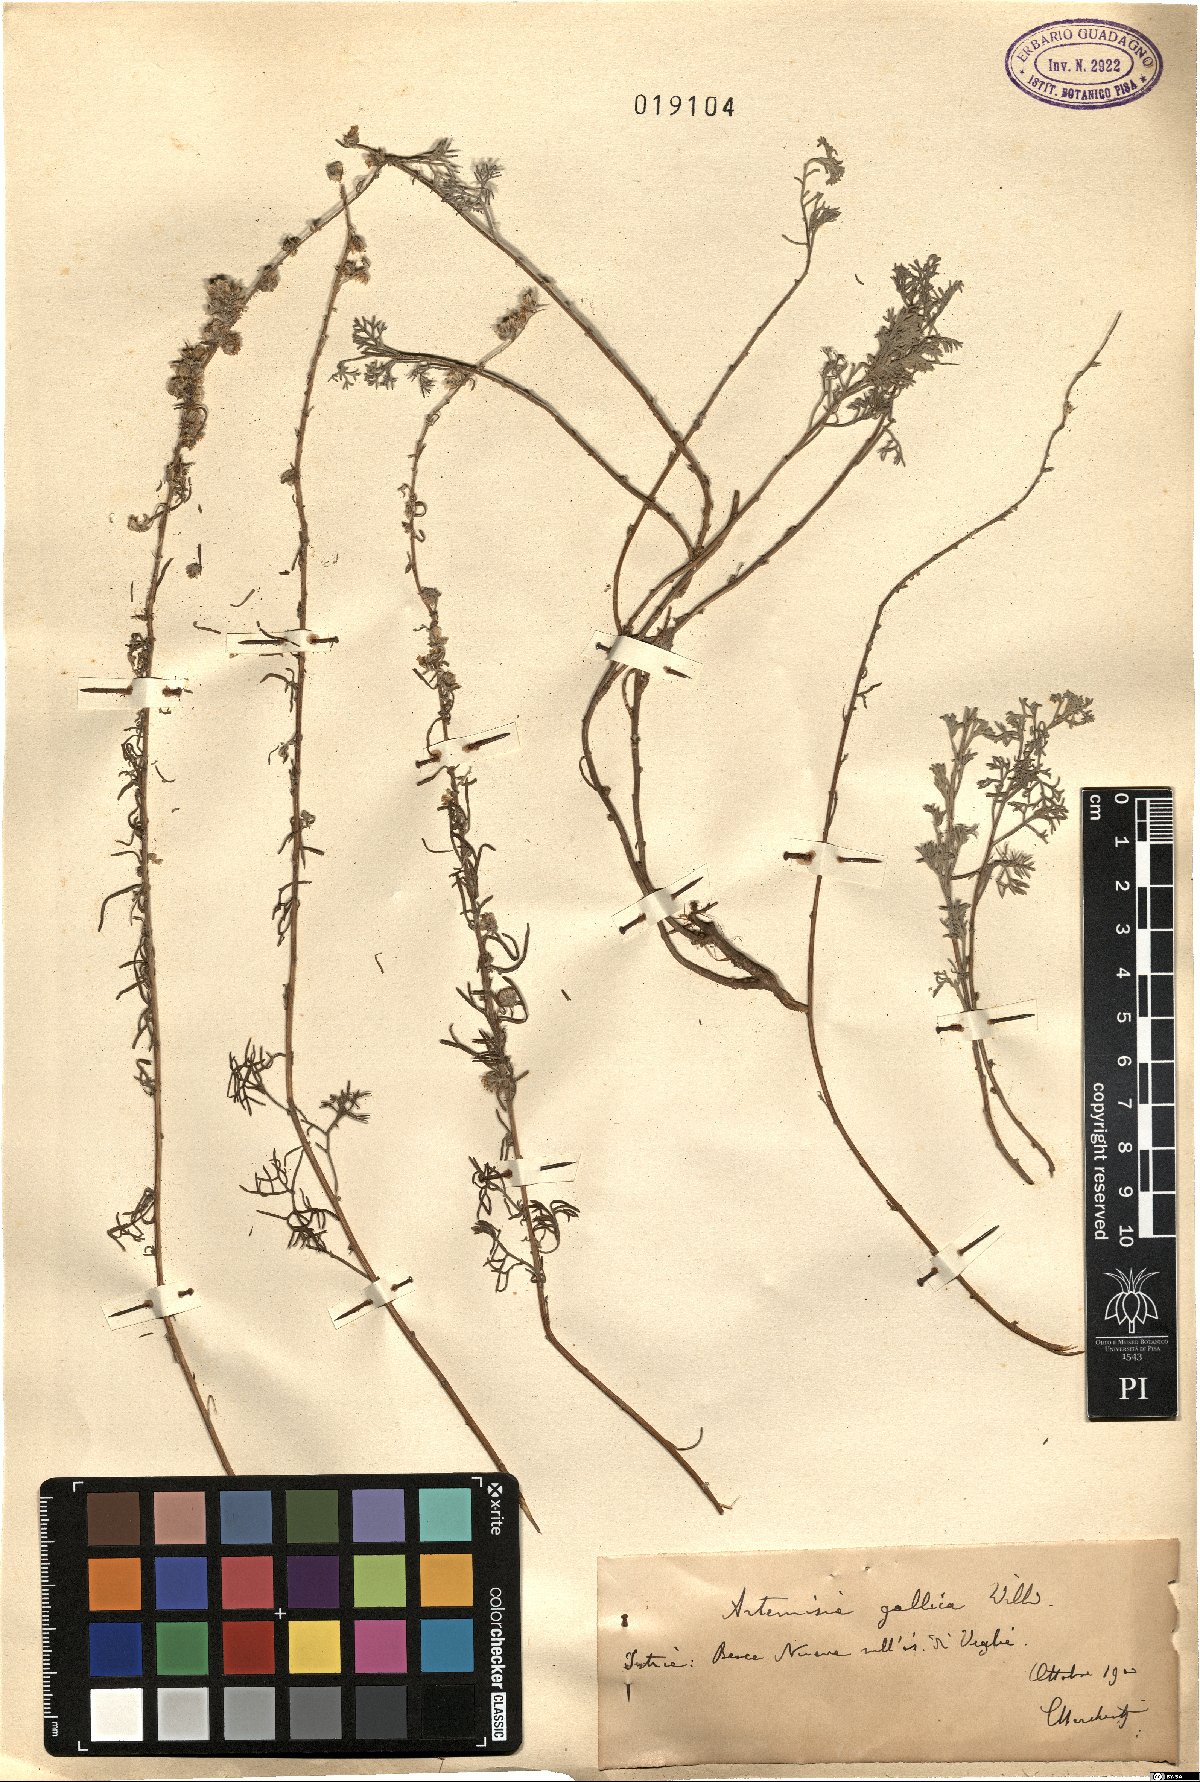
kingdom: Plantae
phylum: Tracheophyta
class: Magnoliopsida
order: Asterales
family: Asteraceae
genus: Artemisia
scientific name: Artemisia caerulescens
